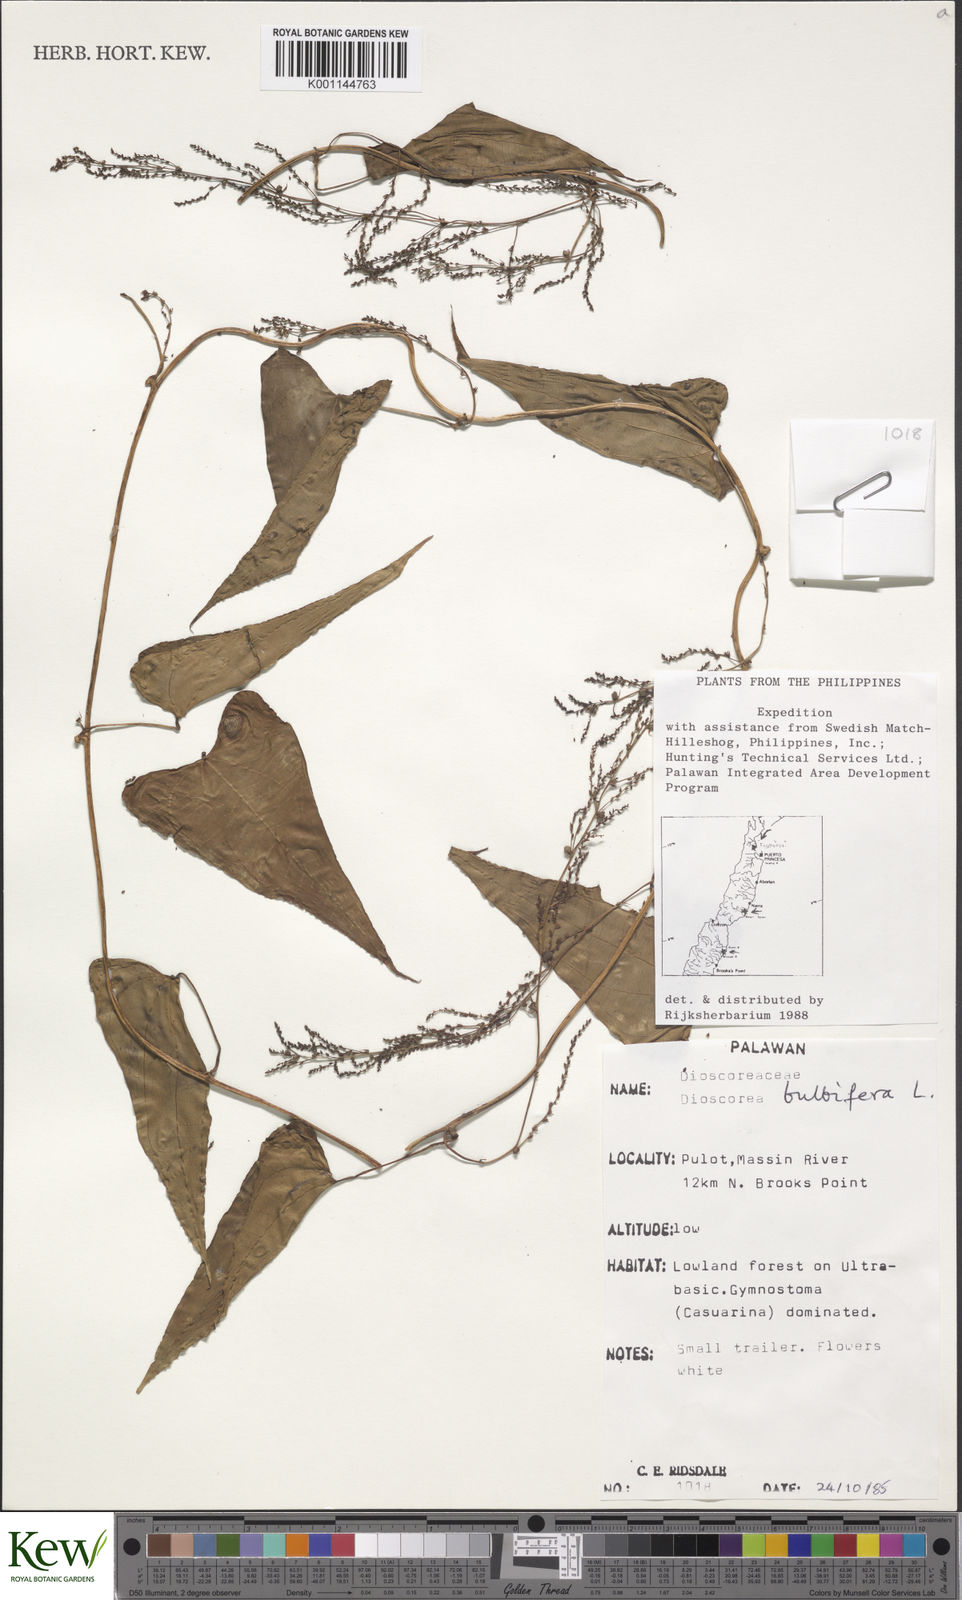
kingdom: Plantae
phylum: Tracheophyta
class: Liliopsida
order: Dioscoreales
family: Dioscoreaceae
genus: Dioscorea
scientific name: Dioscorea bulbifera
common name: Air yam
